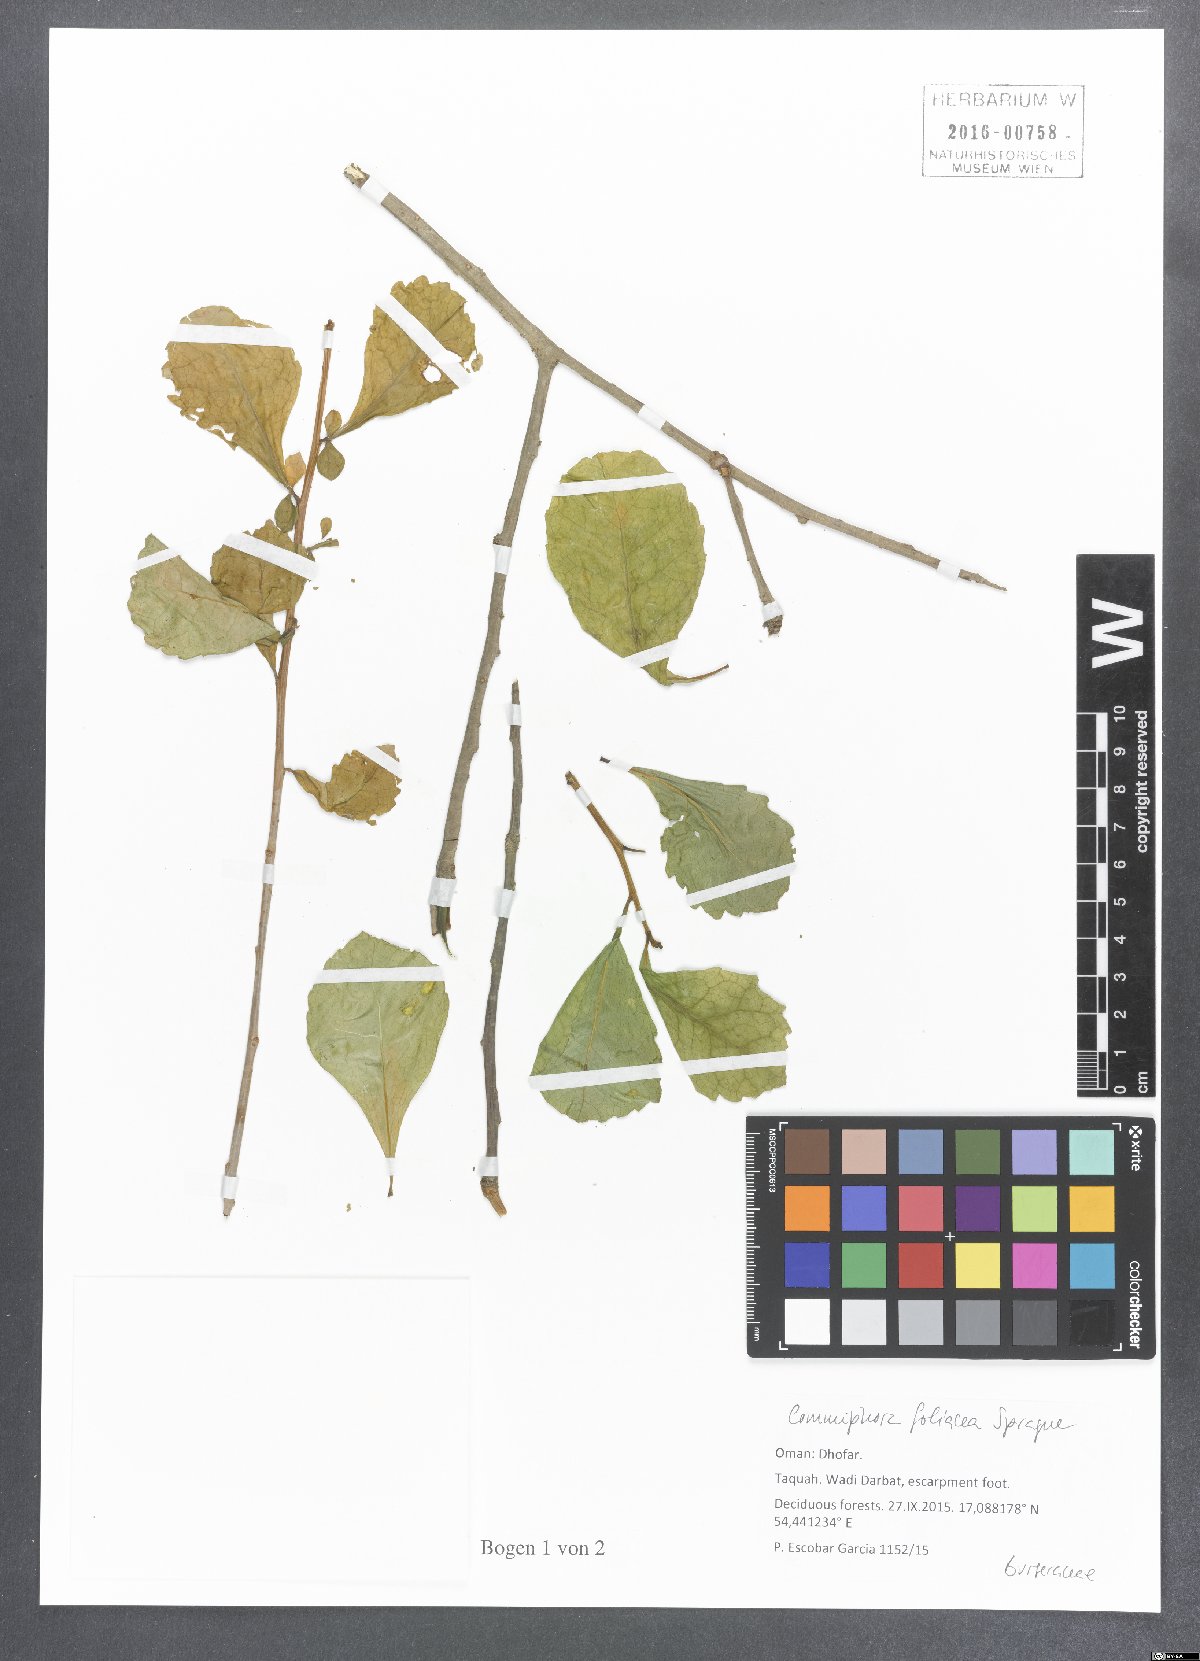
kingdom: Plantae
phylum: Tracheophyta
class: Magnoliopsida
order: Sapindales
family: Burseraceae
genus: Commiphora
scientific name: Commiphora foliacea
